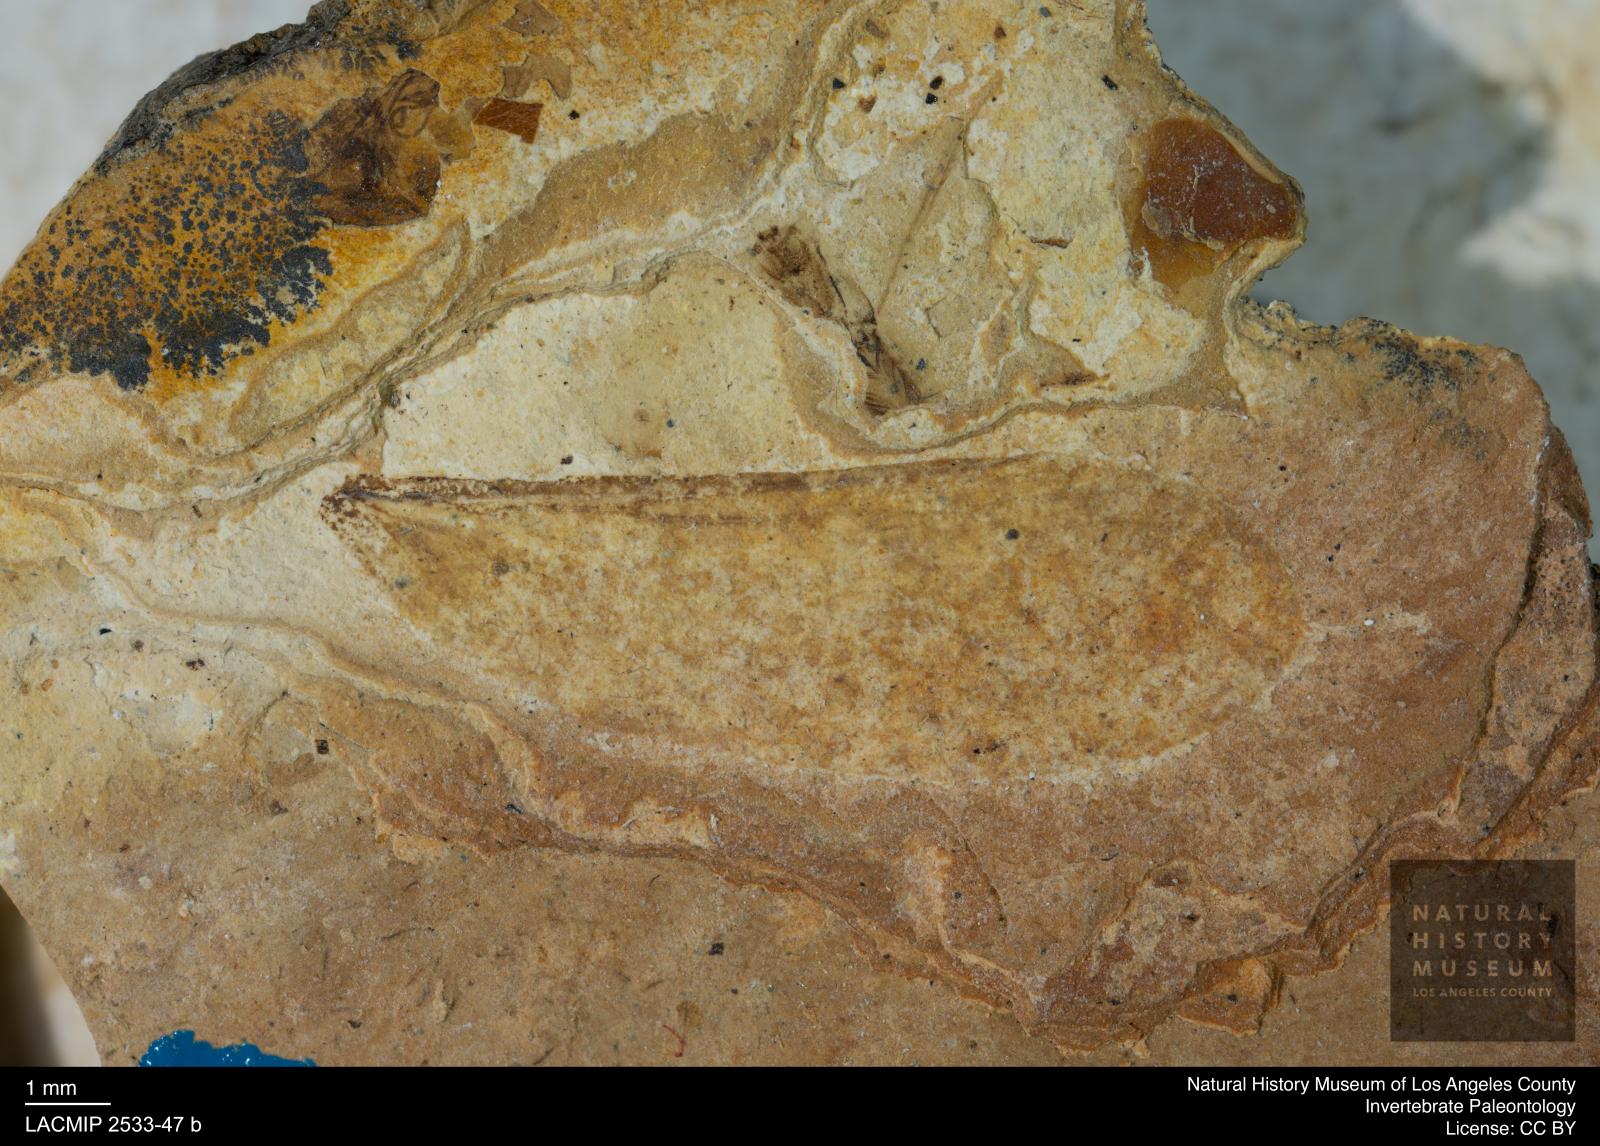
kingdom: Animalia
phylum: Arthropoda
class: Insecta
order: Blattodea
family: Hodotermitidae
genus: Ulmeriella
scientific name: Ulmeriella bauckhorni
